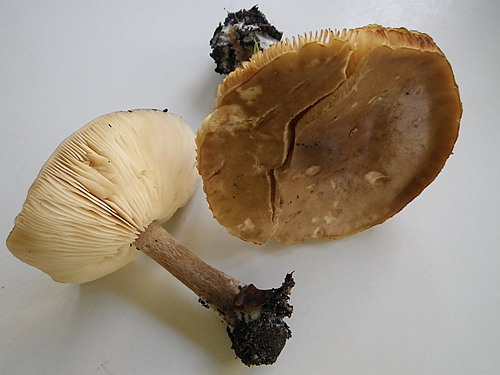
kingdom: Fungi
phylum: Basidiomycota
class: Agaricomycetes
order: Agaricales
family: Tricholomataceae
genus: Melanoleuca
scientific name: Melanoleuca cognata
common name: gyldengrå munkehat
